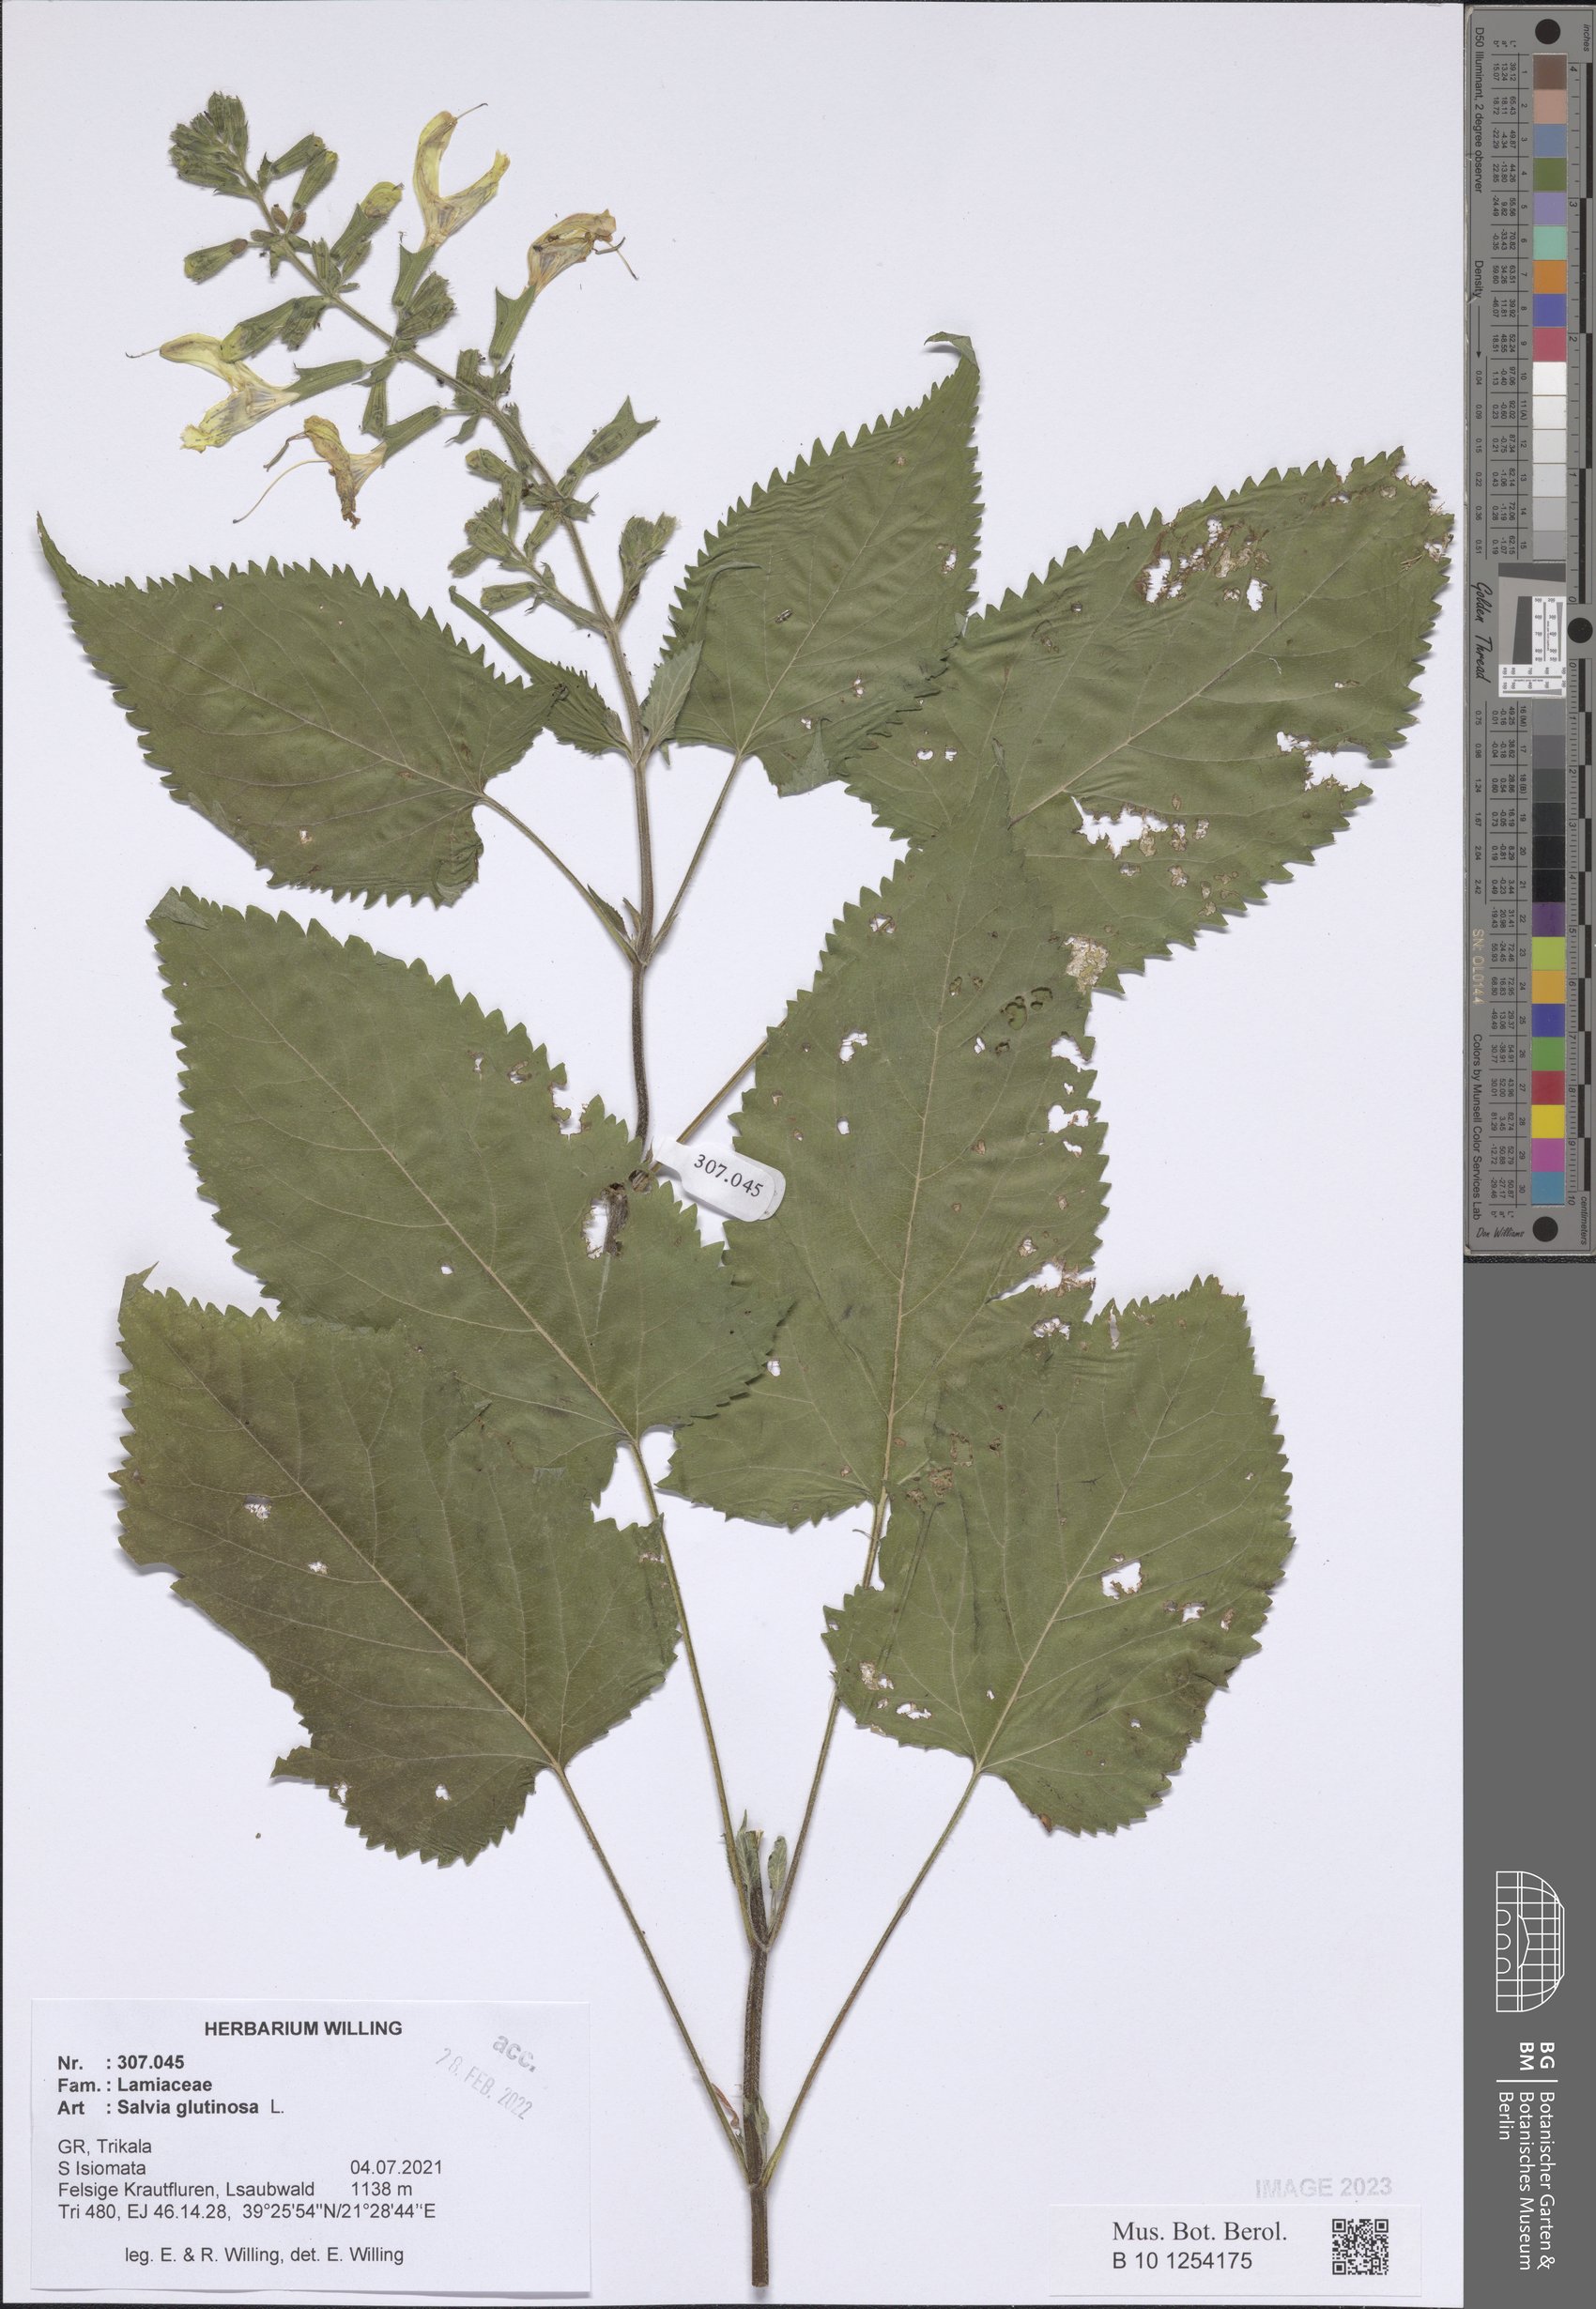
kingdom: Plantae
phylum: Tracheophyta
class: Magnoliopsida
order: Lamiales
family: Lamiaceae
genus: Salvia
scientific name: Salvia glutinosa
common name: Sticky clary
